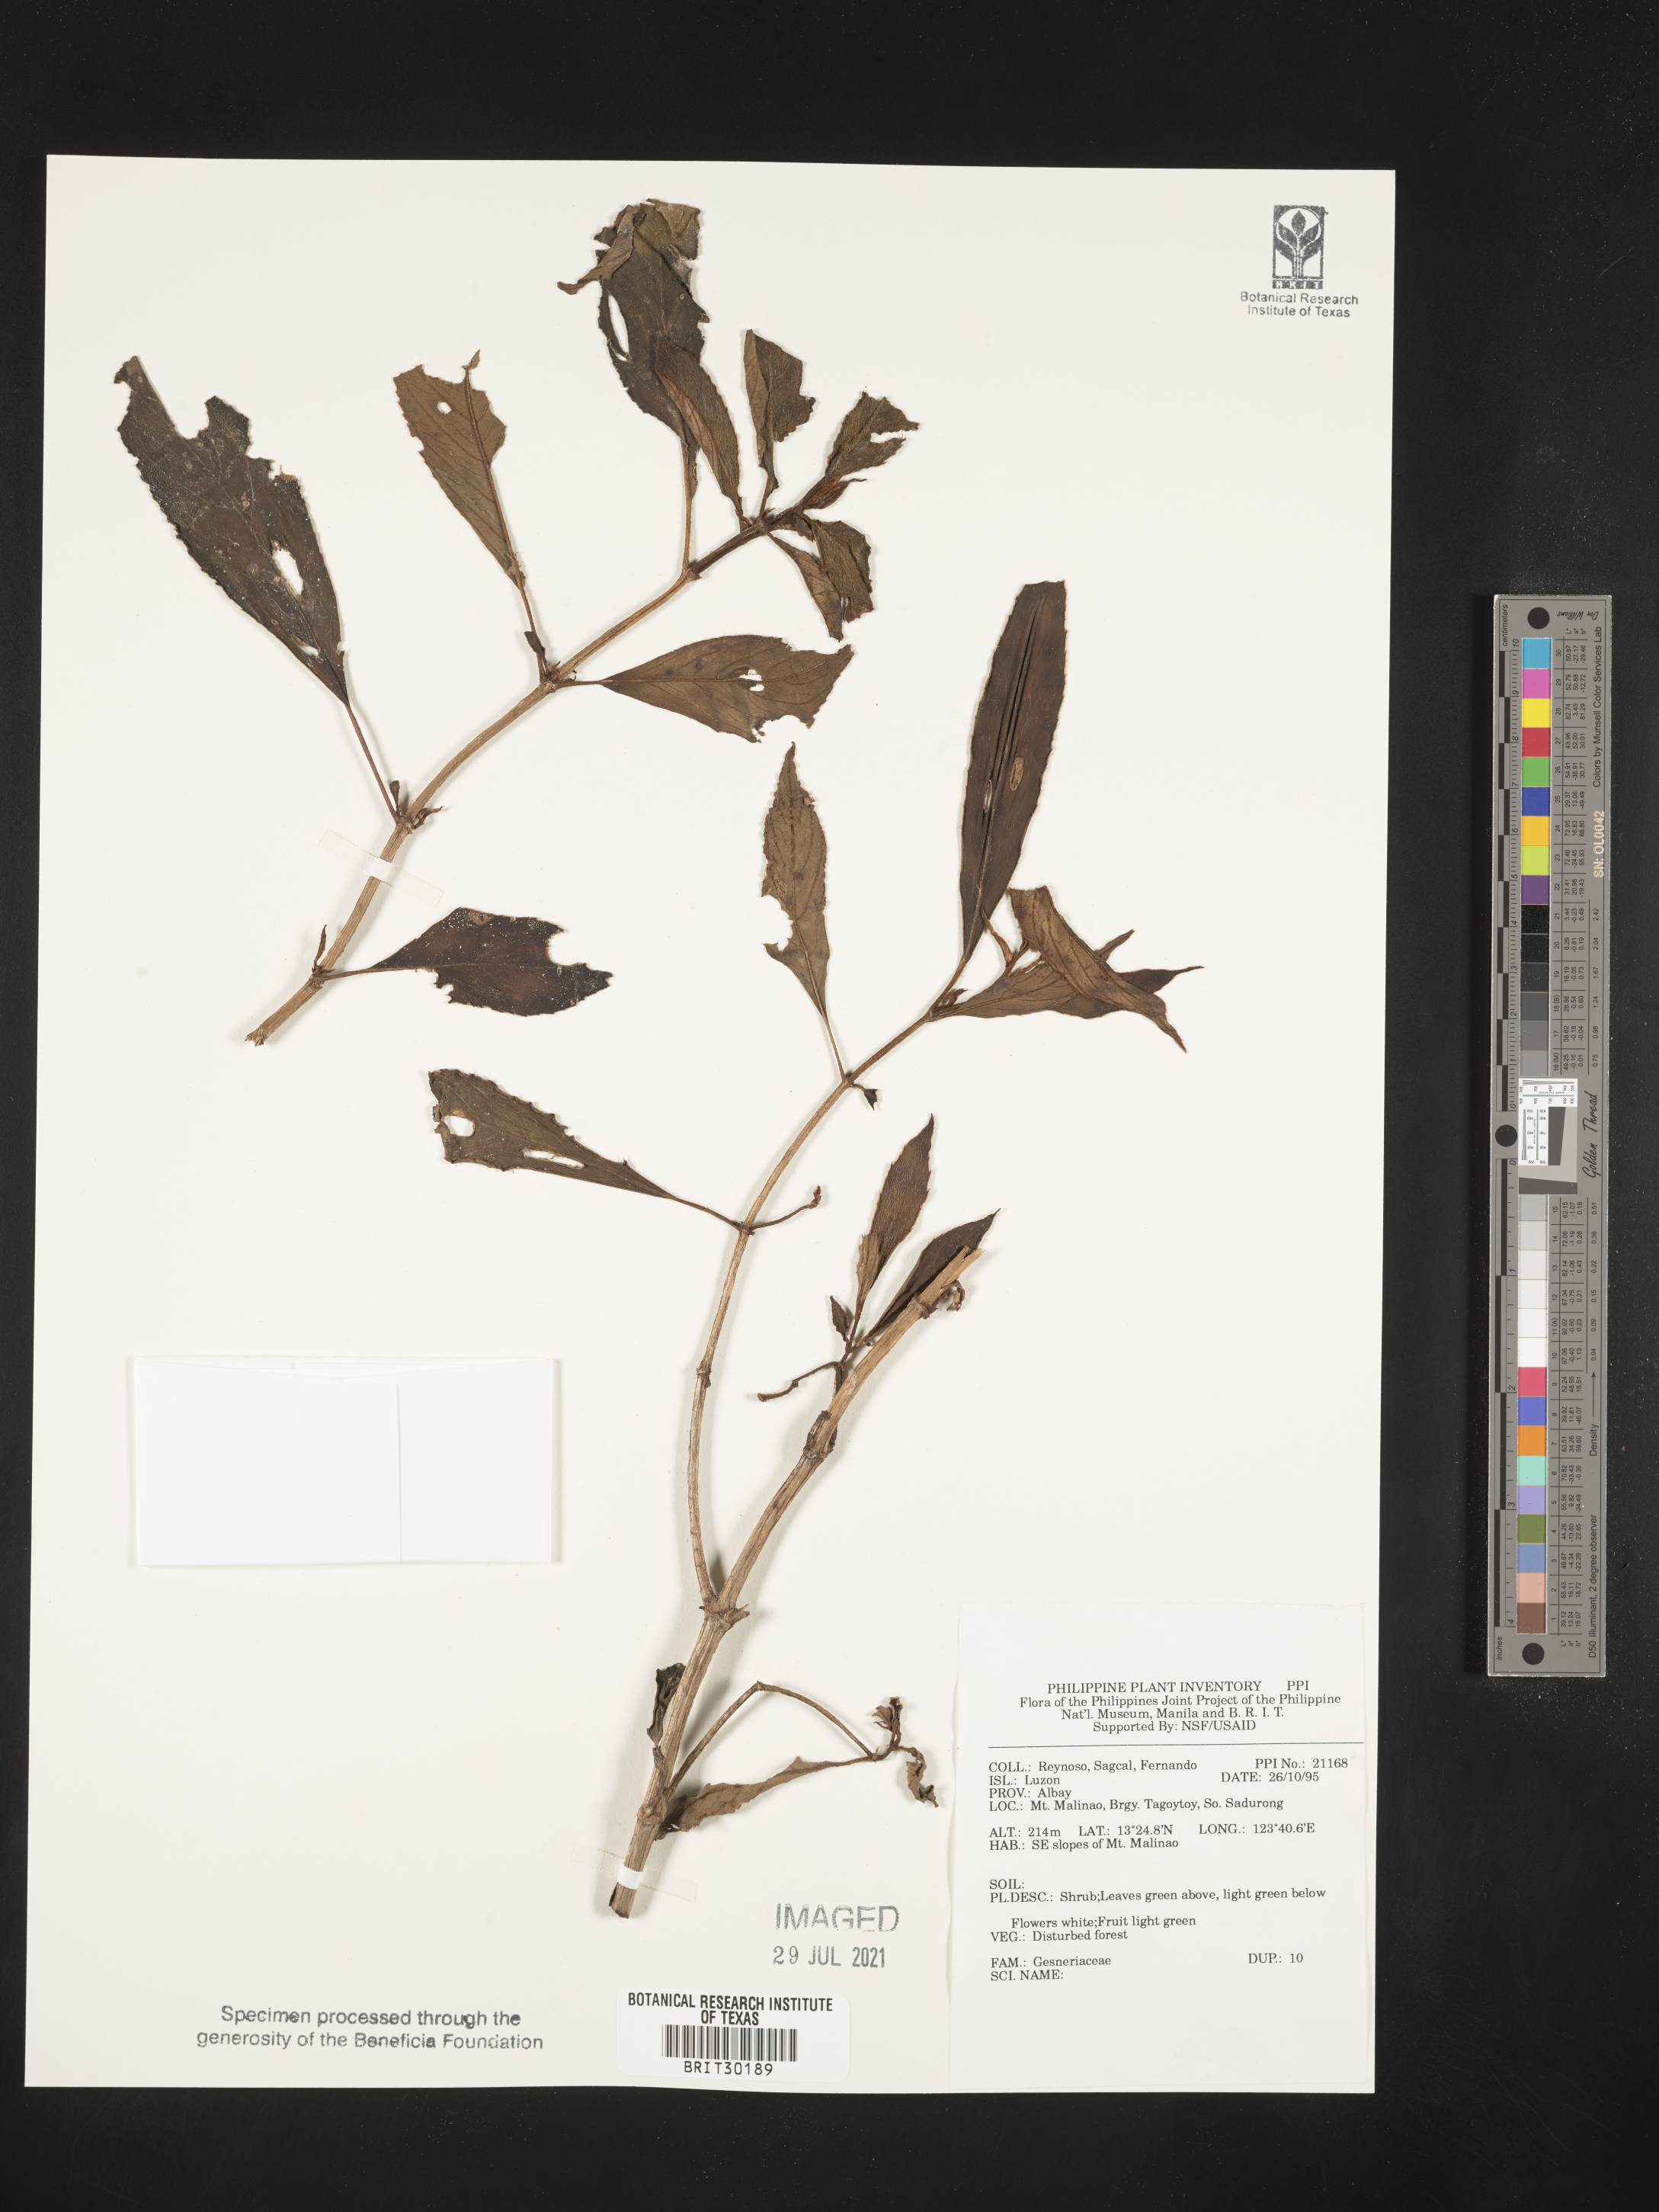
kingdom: Plantae
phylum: Tracheophyta
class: Magnoliopsida
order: Lamiales
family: Gesneriaceae
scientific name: Gesneriaceae
